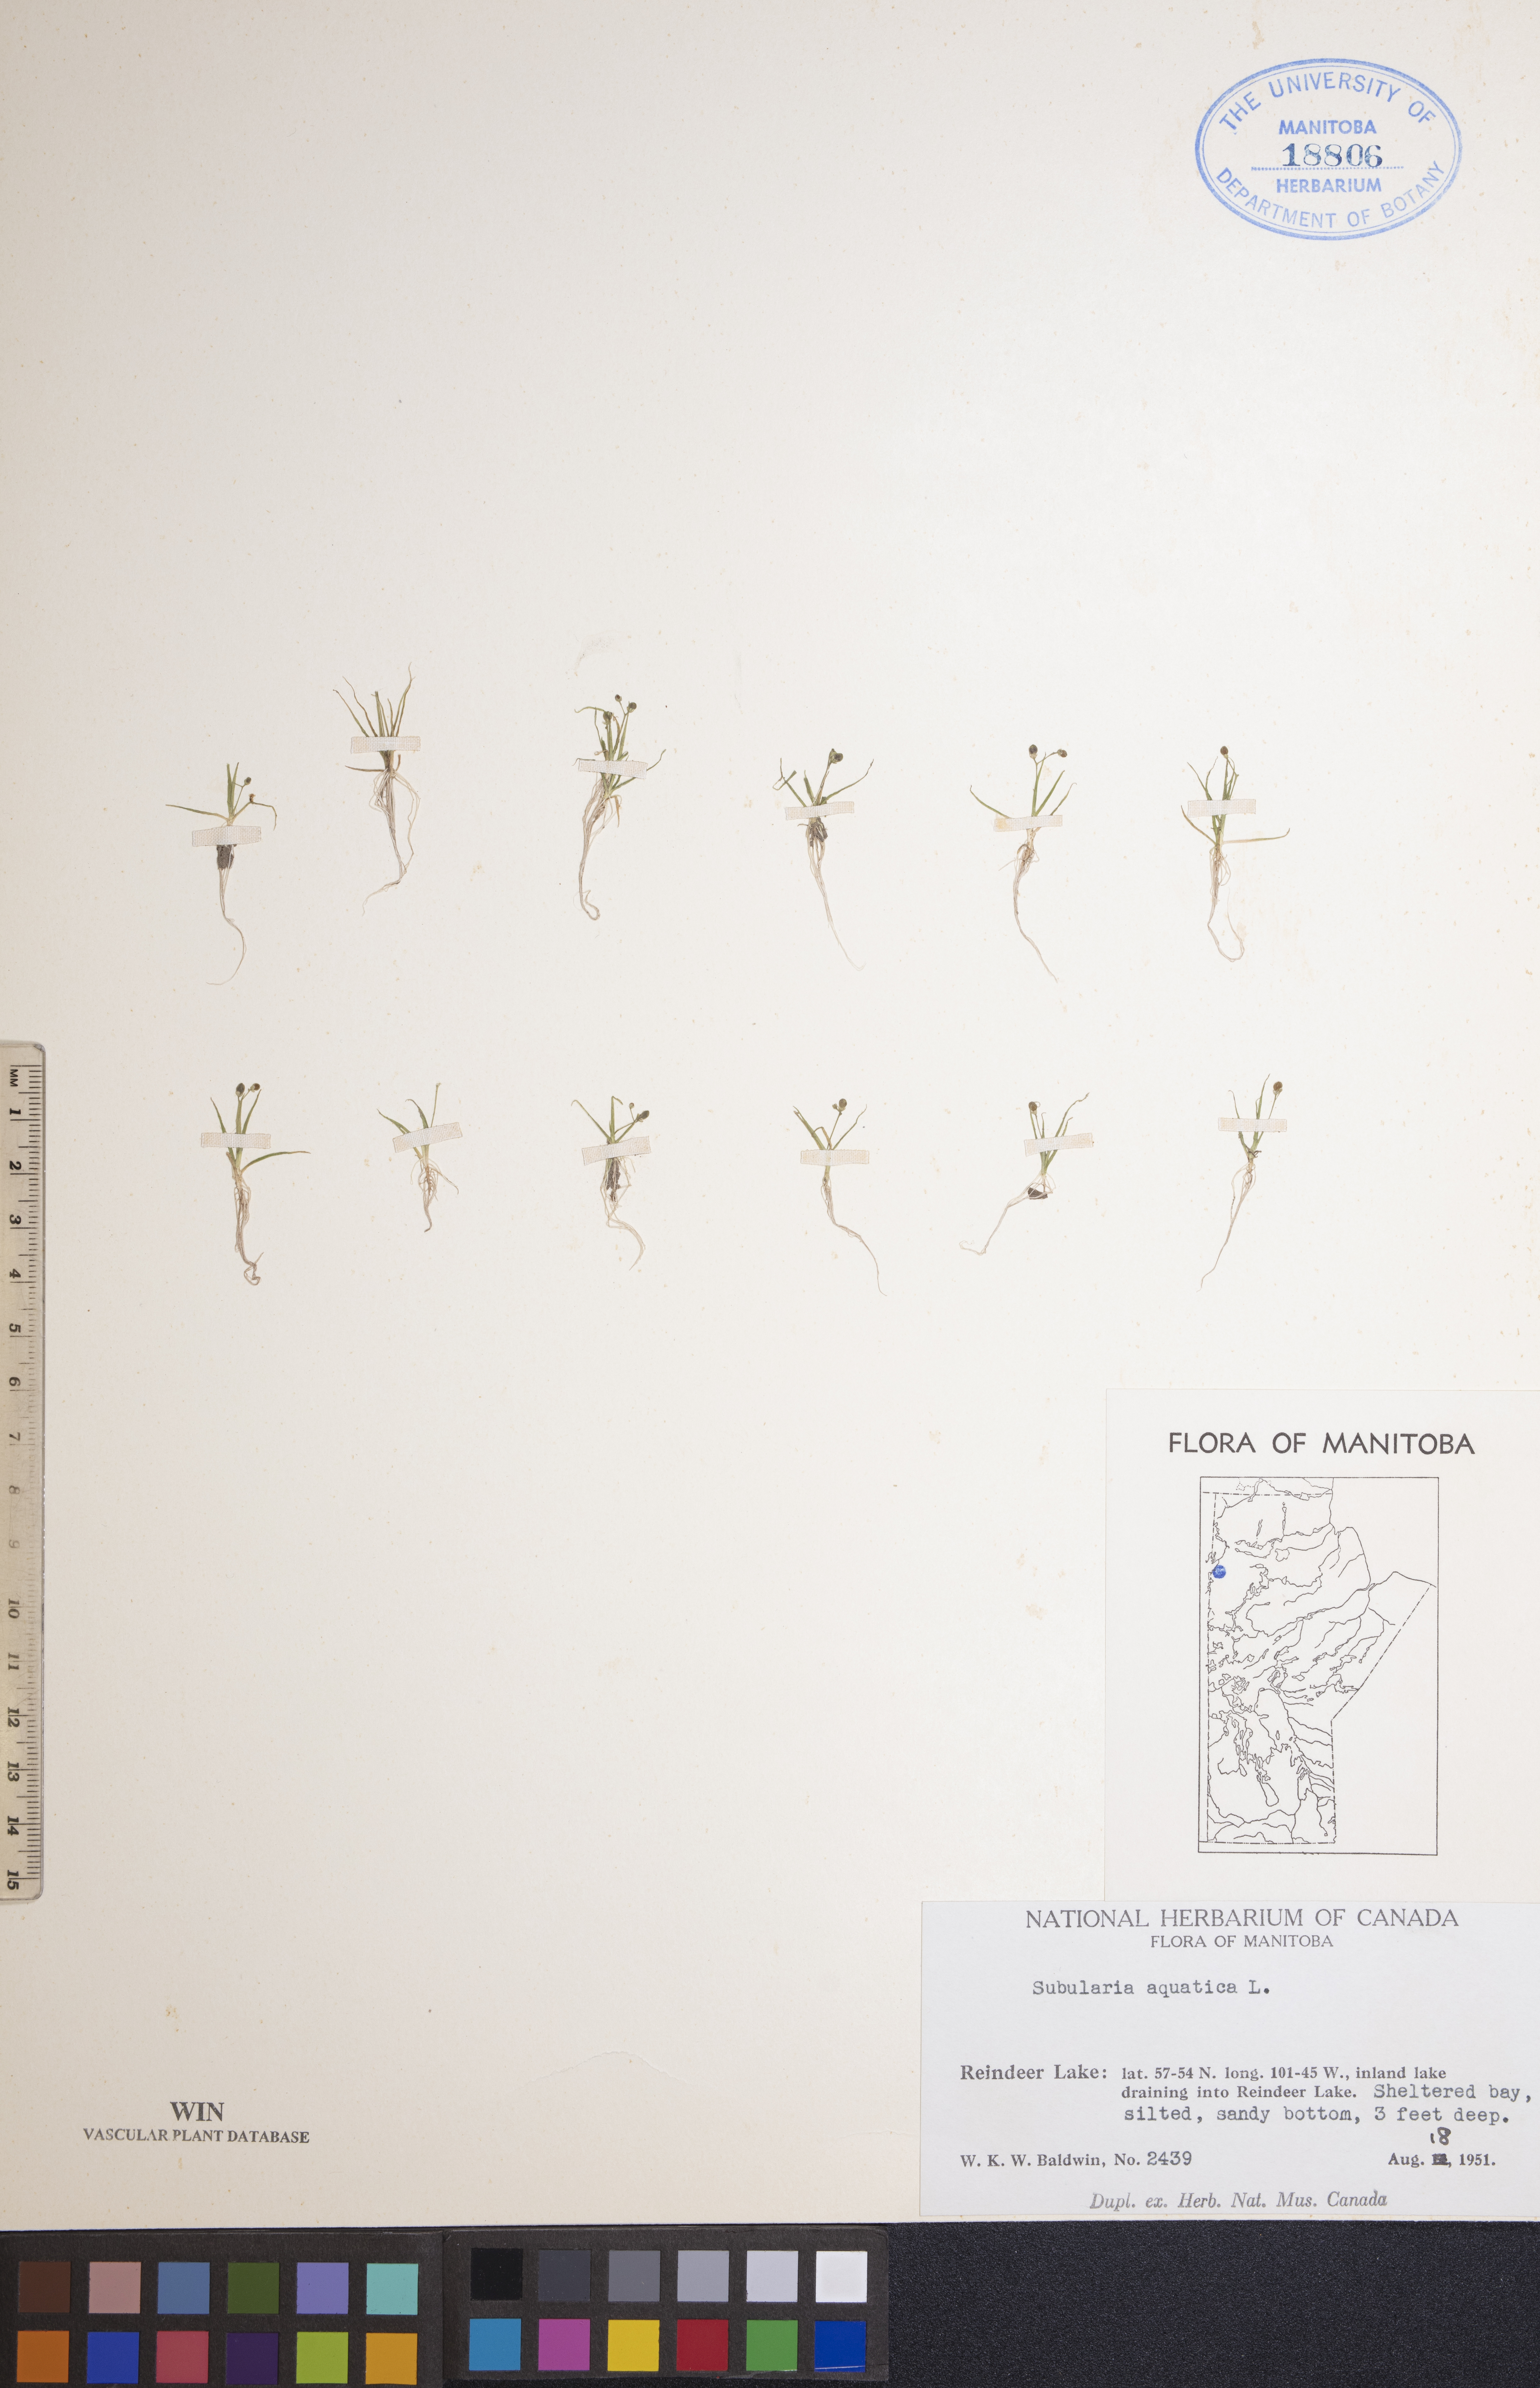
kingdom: Plantae
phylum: Tracheophyta
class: Magnoliopsida
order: Brassicales
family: Brassicaceae
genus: Subularia
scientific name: Subularia aquatica
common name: Awlwort
